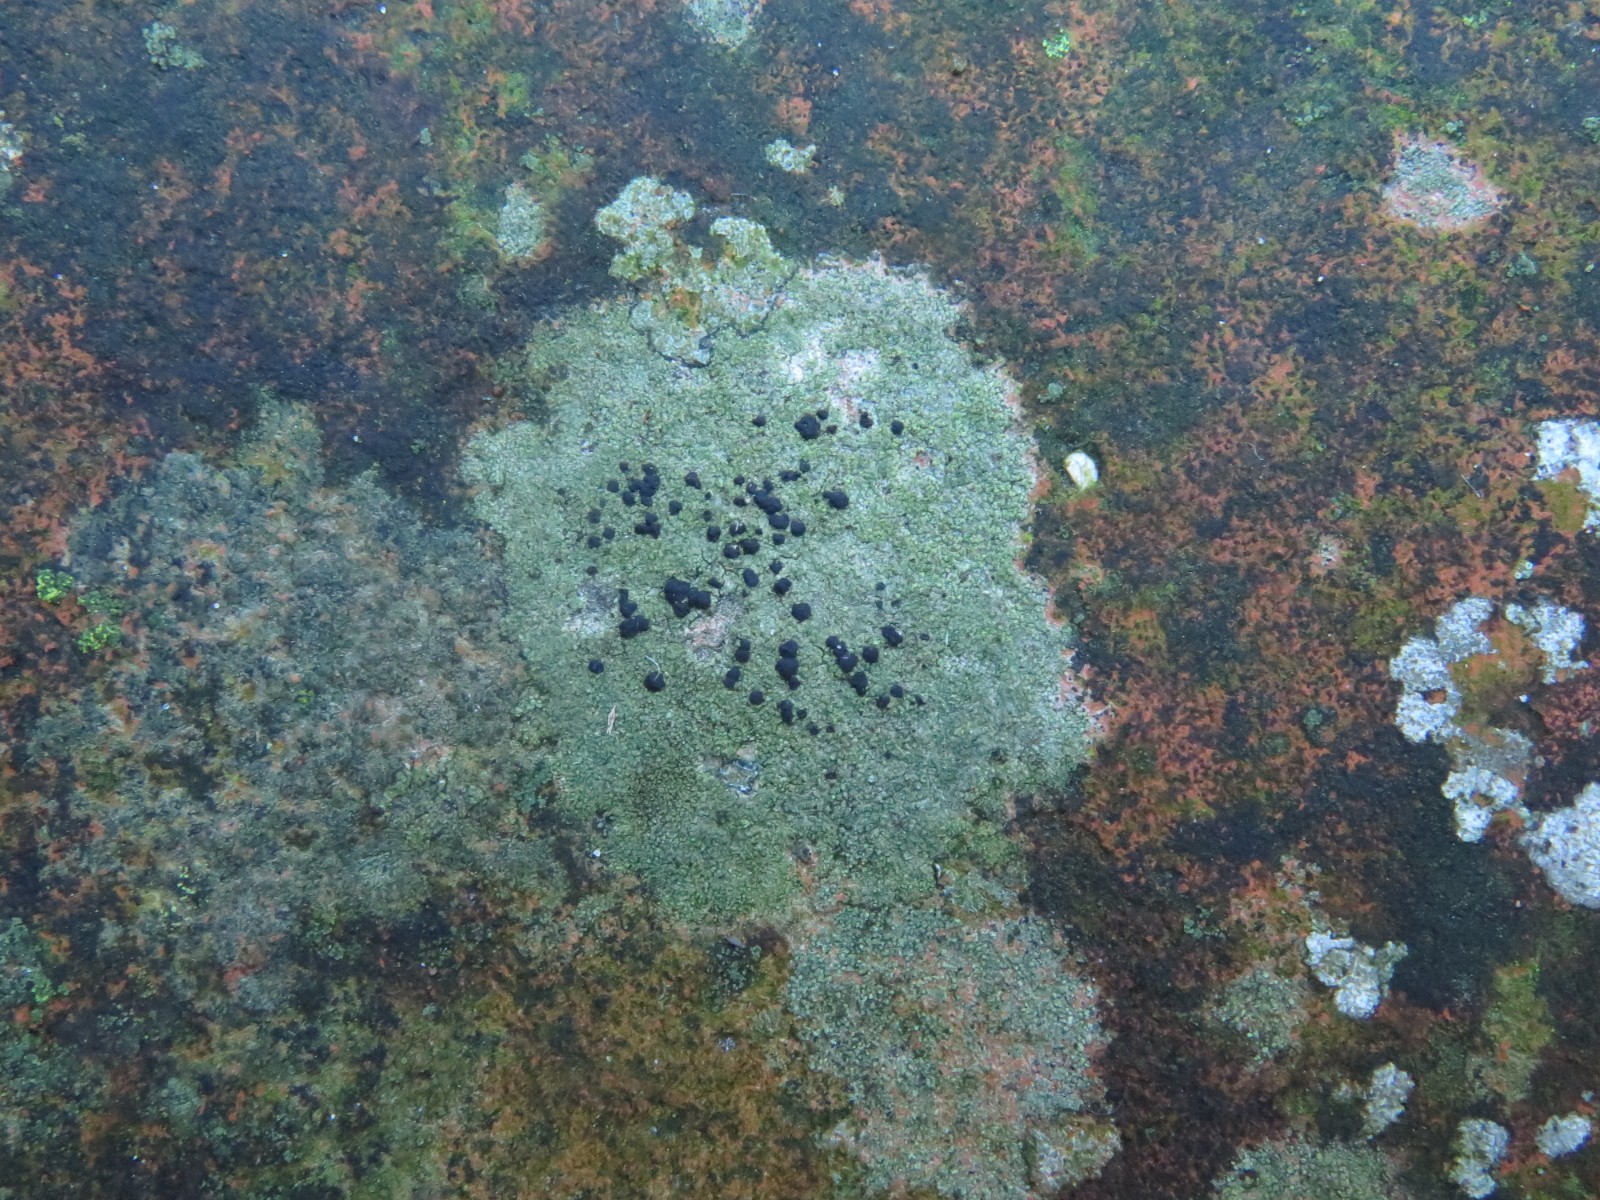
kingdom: Fungi
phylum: Ascomycota
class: Lecanoromycetes
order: Lecanorales
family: Lecanoraceae
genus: Lecidella
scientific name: Lecidella scabra
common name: skurvet skivelav
